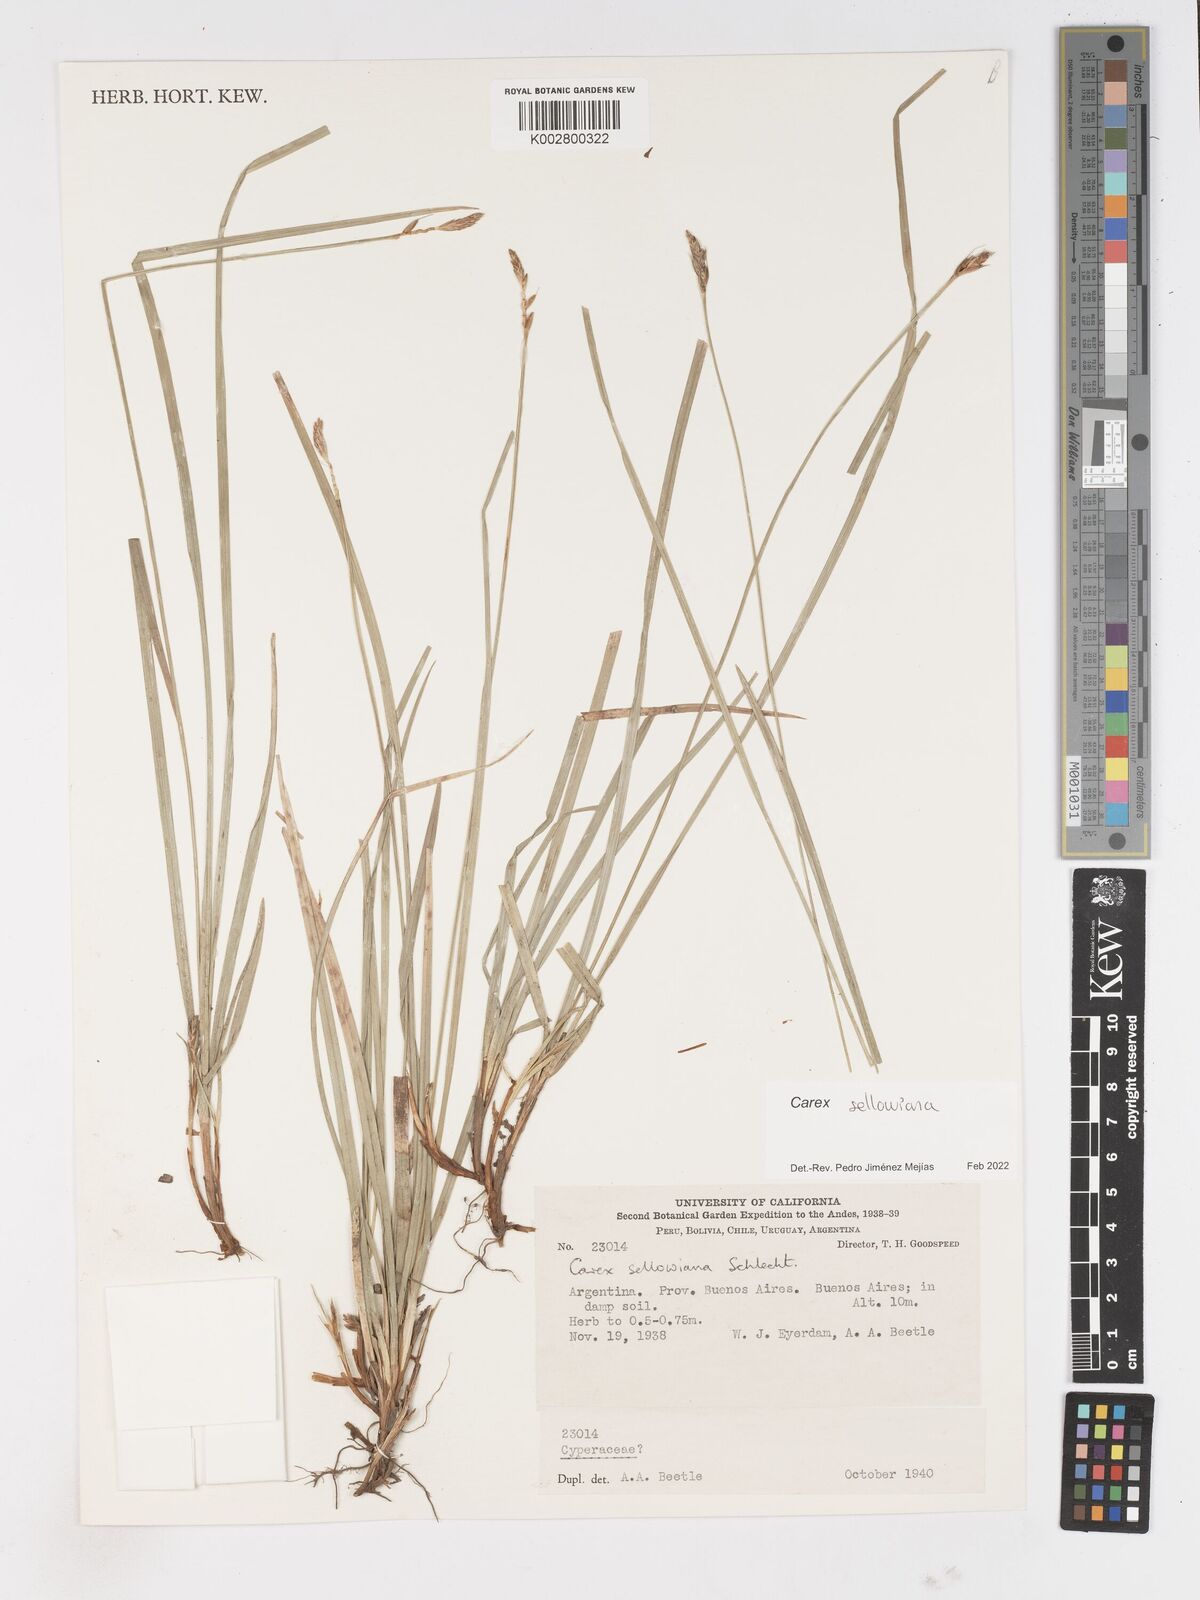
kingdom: Plantae
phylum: Tracheophyta
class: Liliopsida
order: Poales
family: Cyperaceae
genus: Carex
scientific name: Carex sellowiana
